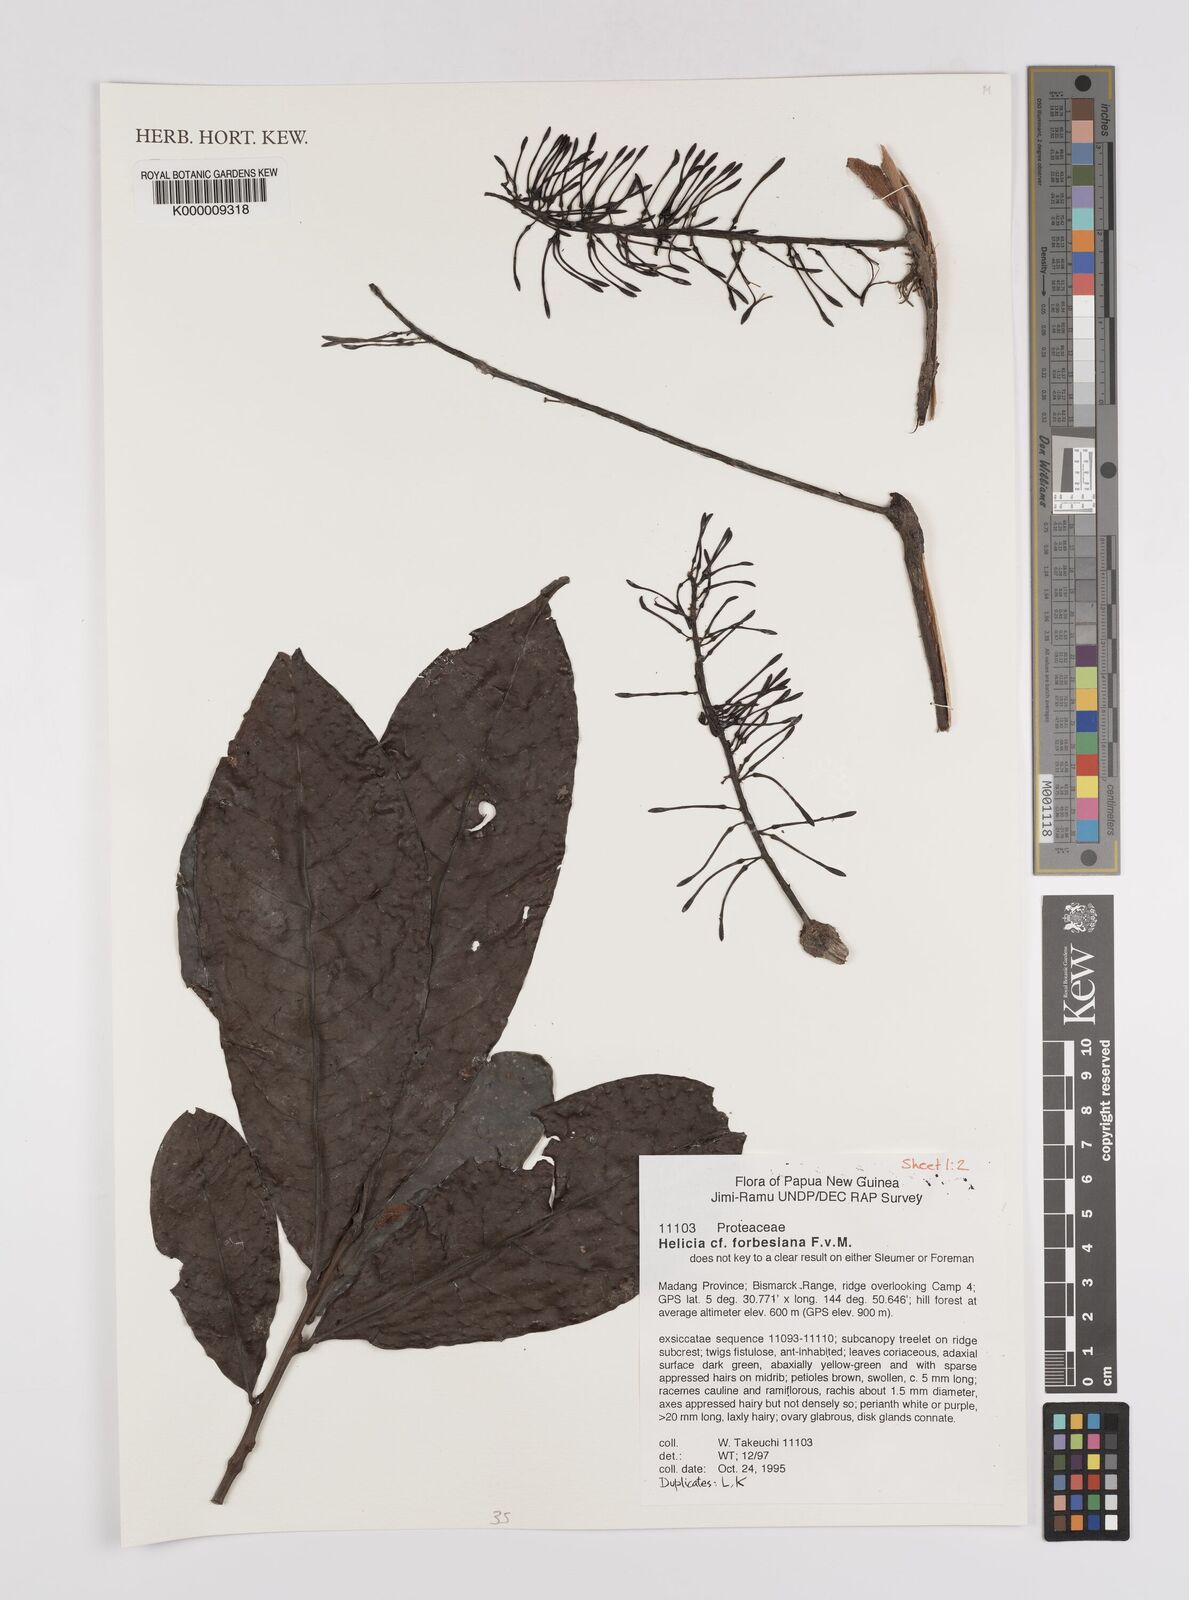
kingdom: Plantae
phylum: Tracheophyta
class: Magnoliopsida
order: Proteales
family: Proteaceae
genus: Helicia
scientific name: Helicia
